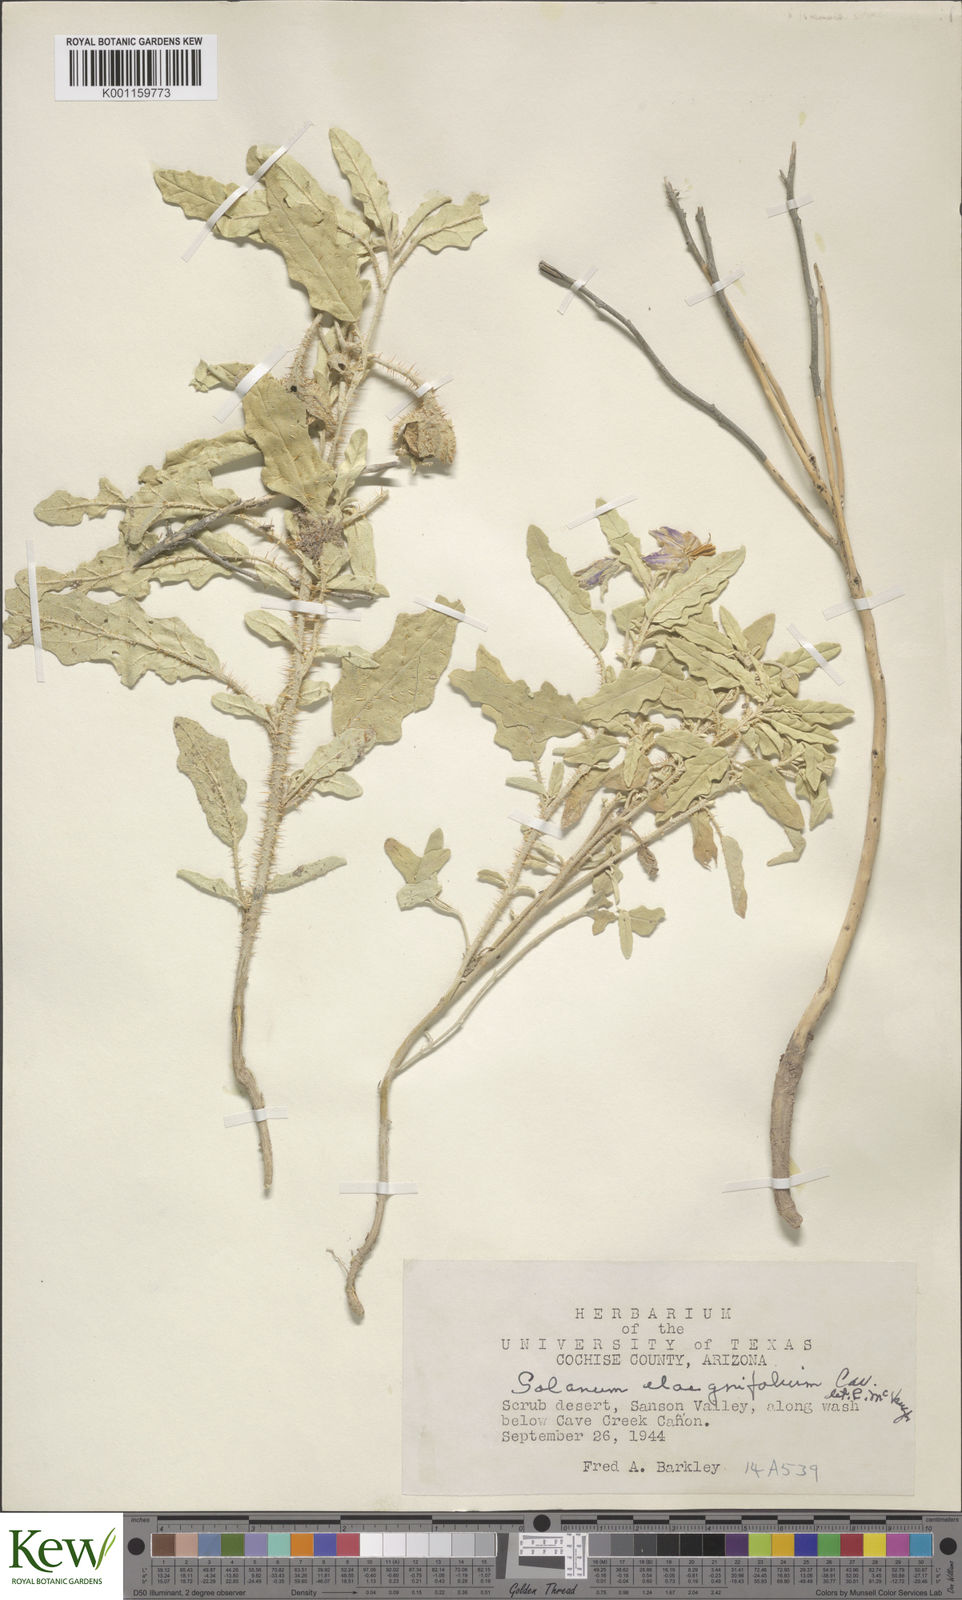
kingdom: Plantae
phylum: Tracheophyta
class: Magnoliopsida
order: Solanales
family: Solanaceae
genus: Solanum
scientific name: Solanum
